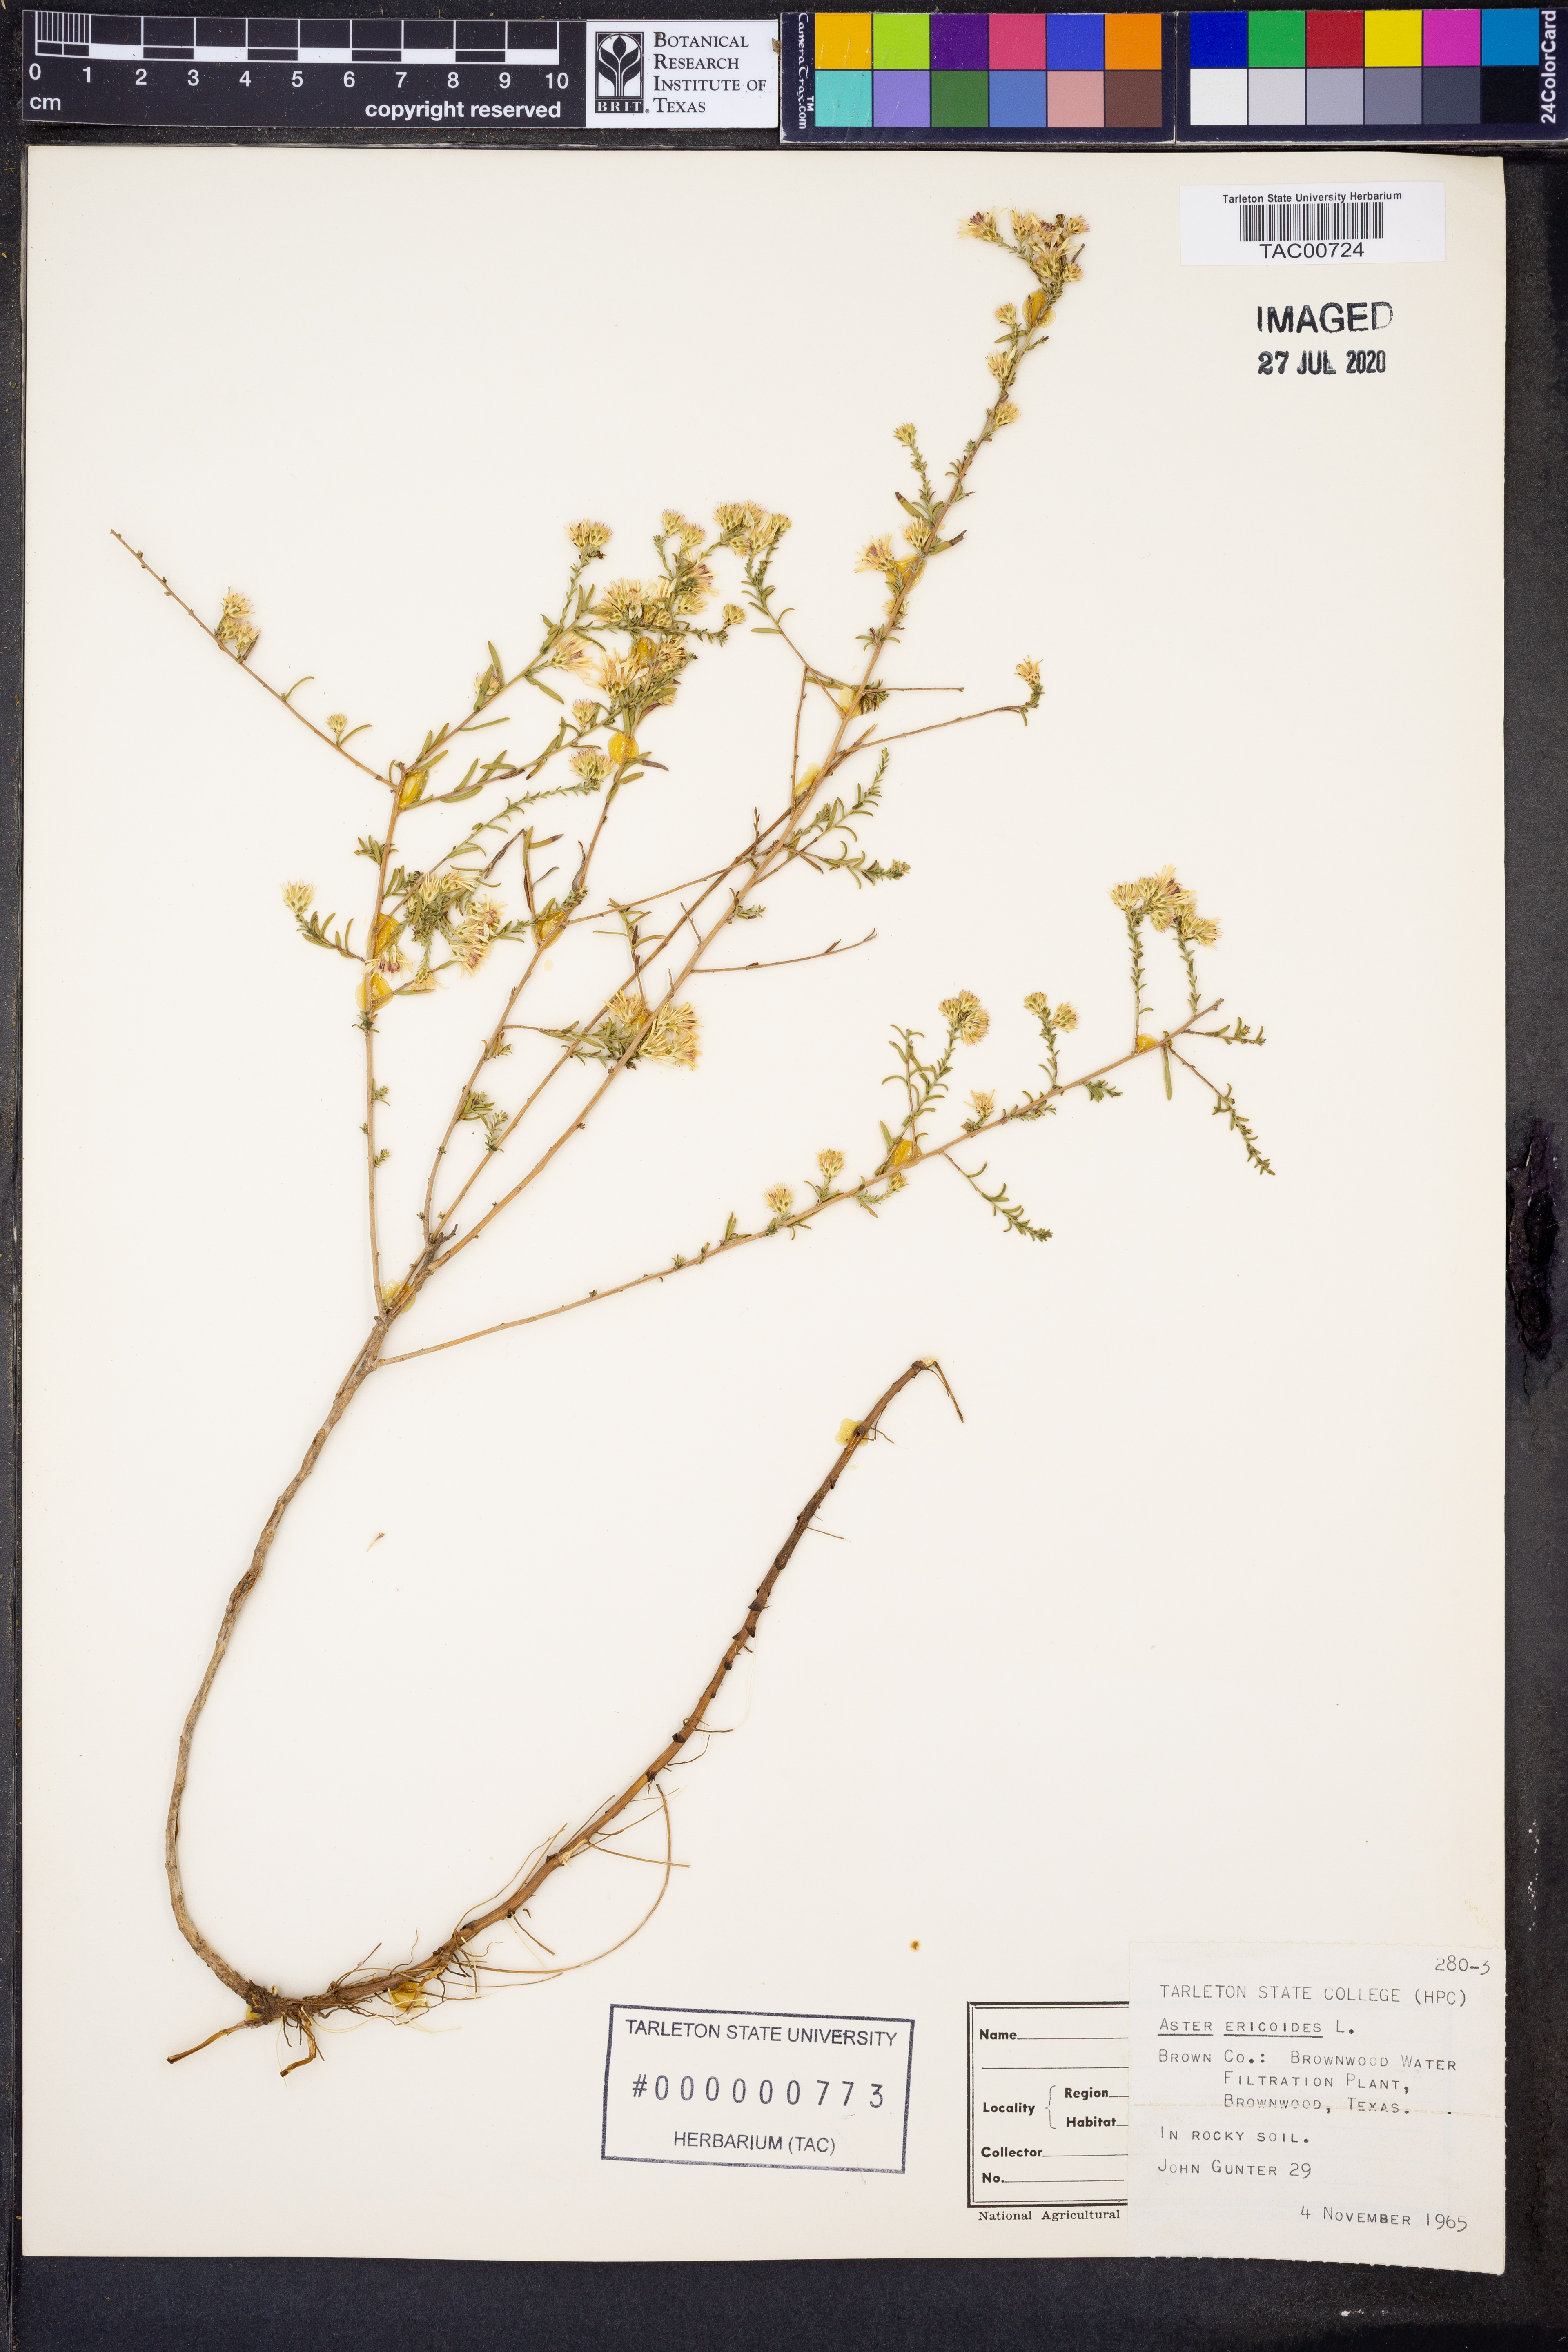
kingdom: Plantae
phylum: Tracheophyta
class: Magnoliopsida
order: Asterales
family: Asteraceae
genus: Symphyotrichum
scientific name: Symphyotrichum ericoides
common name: Heath aster
